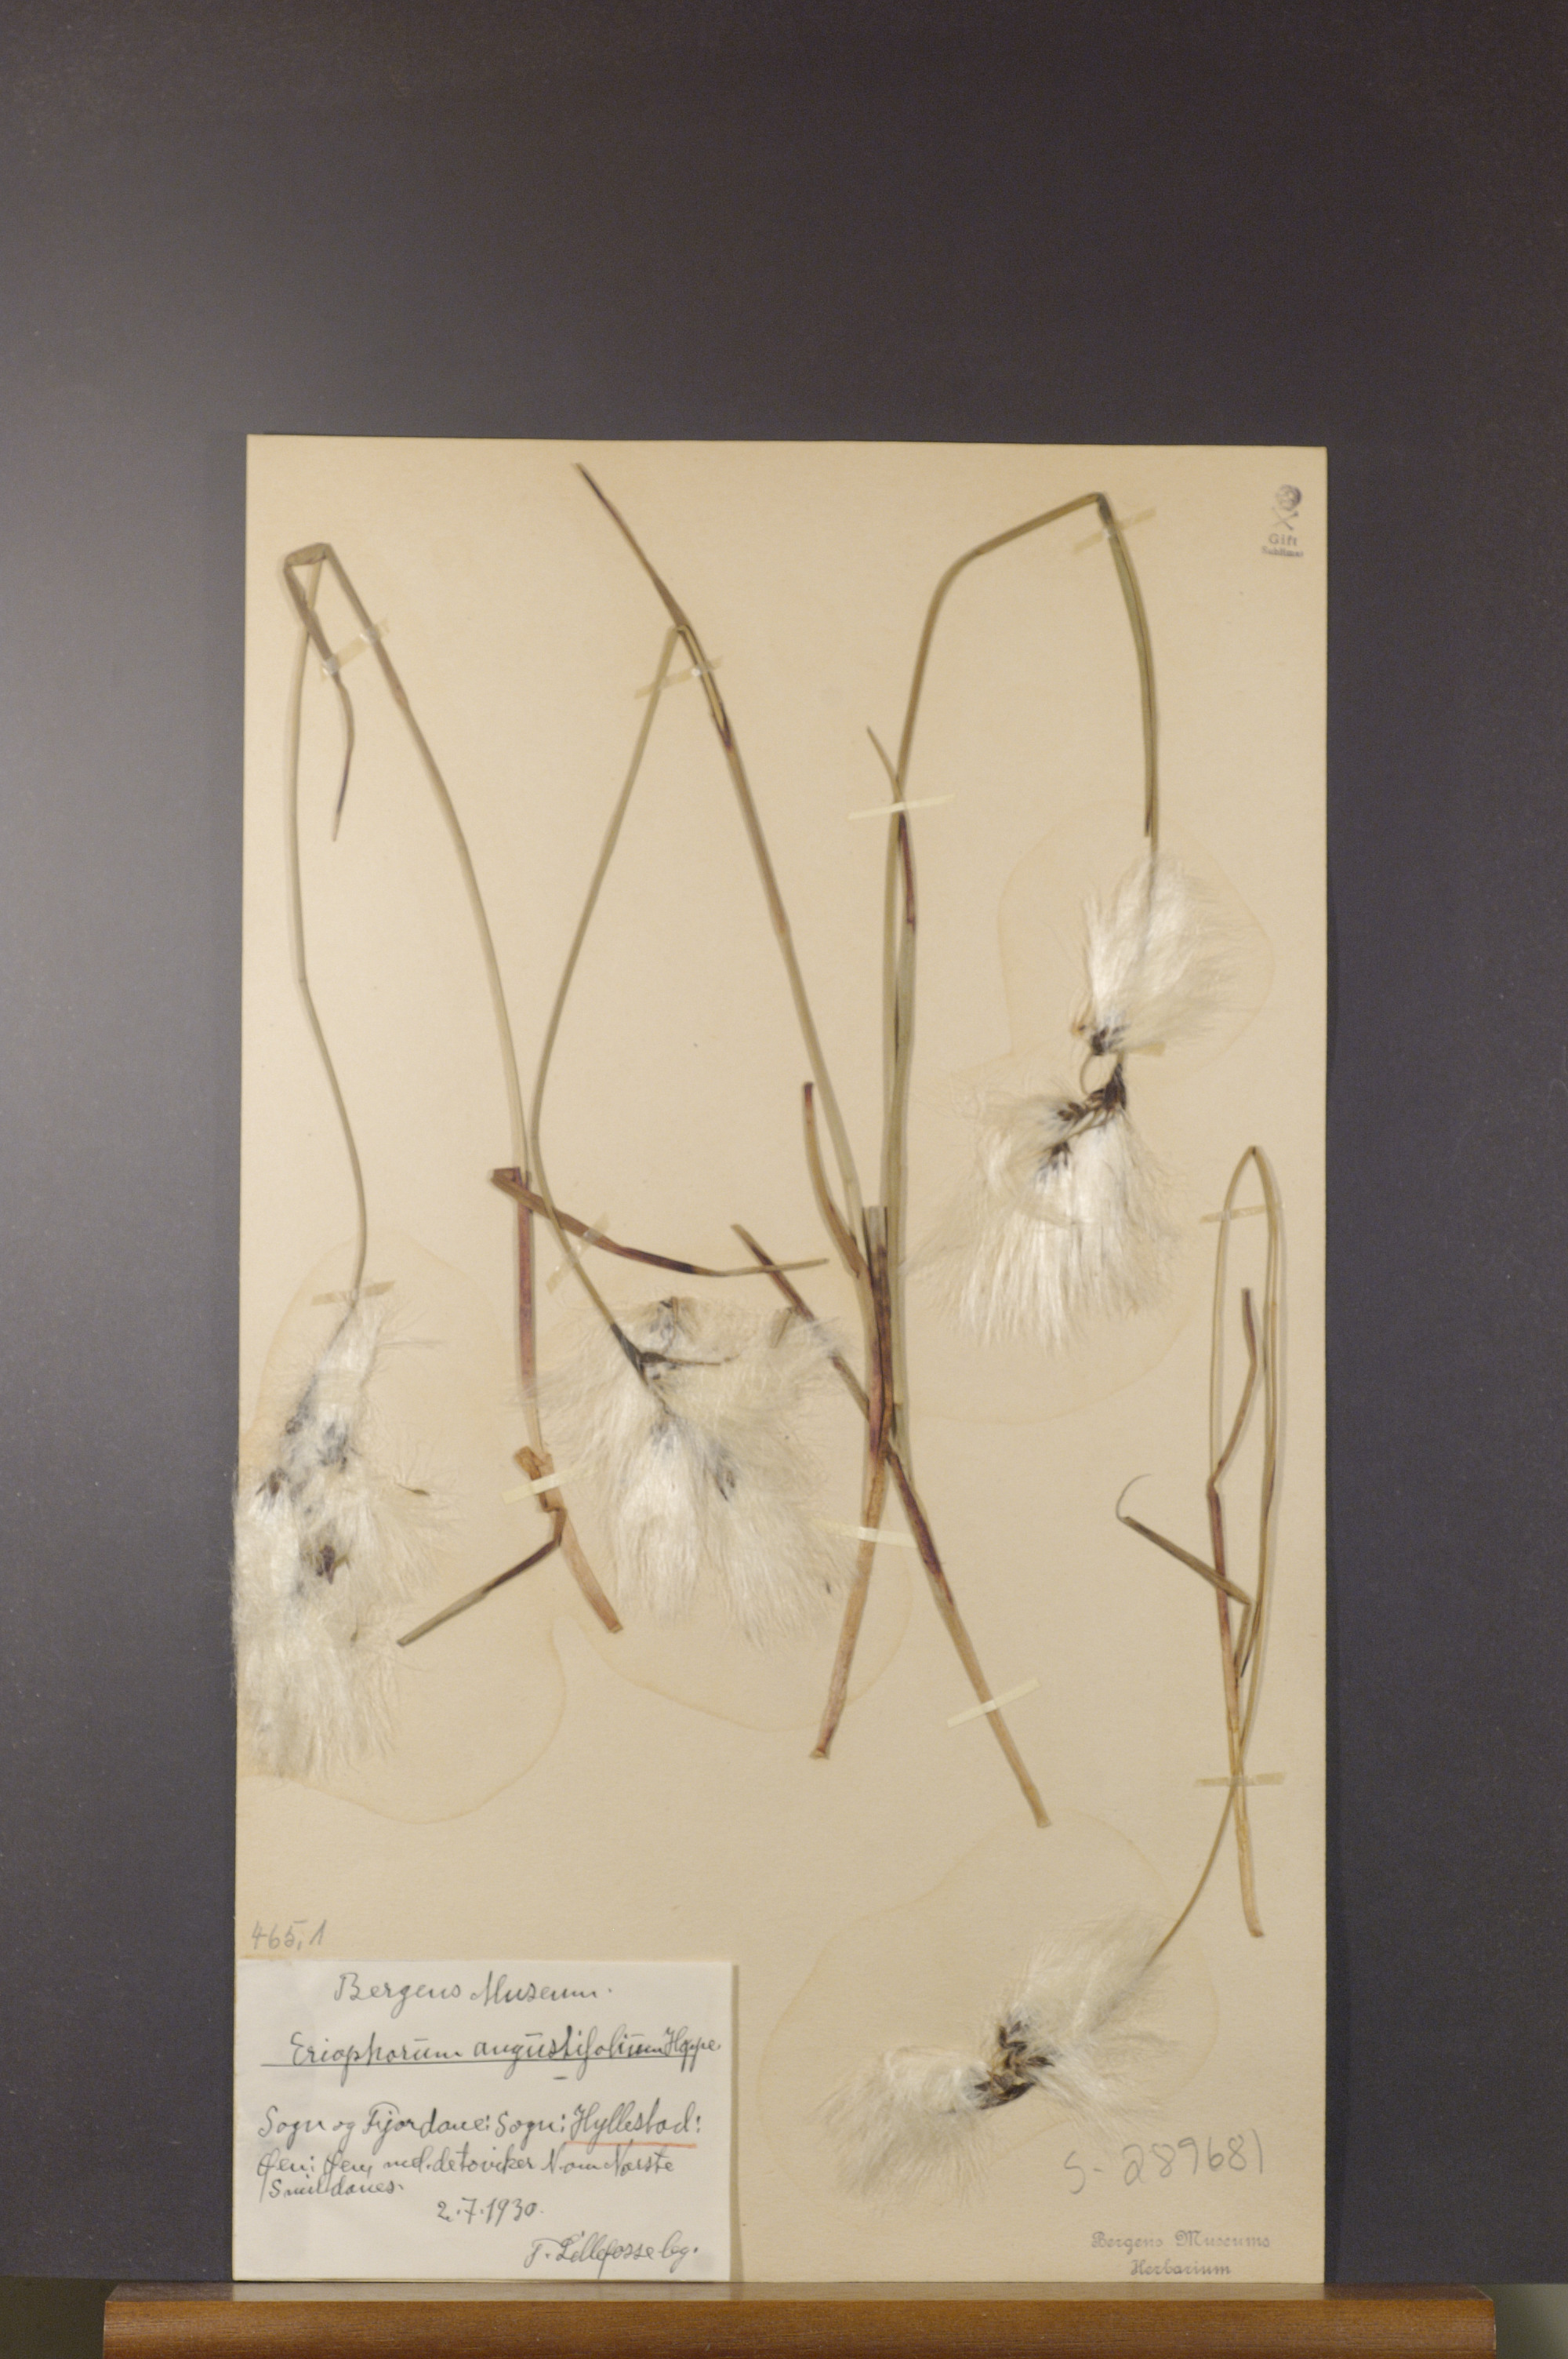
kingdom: Plantae
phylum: Tracheophyta
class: Liliopsida
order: Poales
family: Cyperaceae
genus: Eriophorum
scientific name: Eriophorum angustifolium
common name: Common cottongrass
